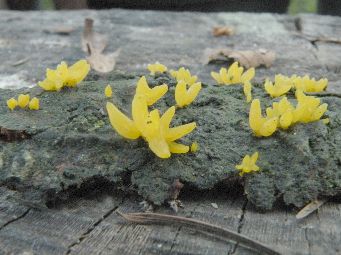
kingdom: Fungi
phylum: Basidiomycota
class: Dacrymycetes
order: Dacrymycetales
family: Dacrymycetaceae
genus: Calocera
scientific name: Calocera furcata
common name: fyrre-guldgaffel
